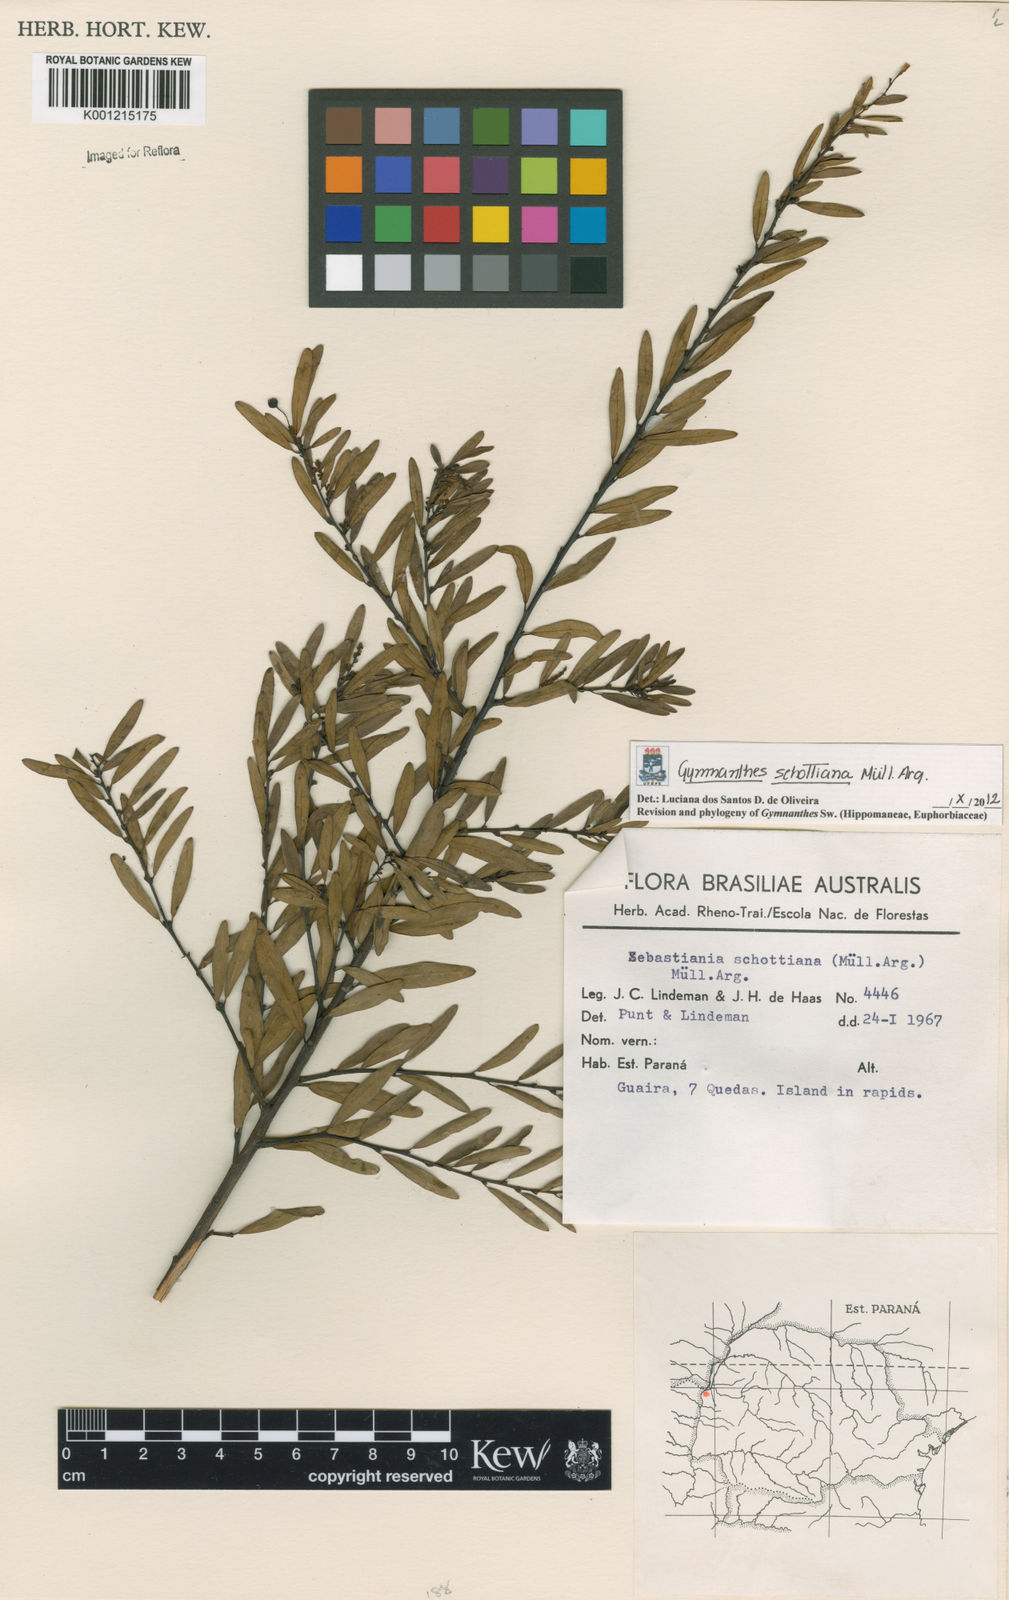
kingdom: Plantae
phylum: Tracheophyta
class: Magnoliopsida
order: Malpighiales
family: Euphorbiaceae
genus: Gymnanthes
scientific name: Gymnanthes
